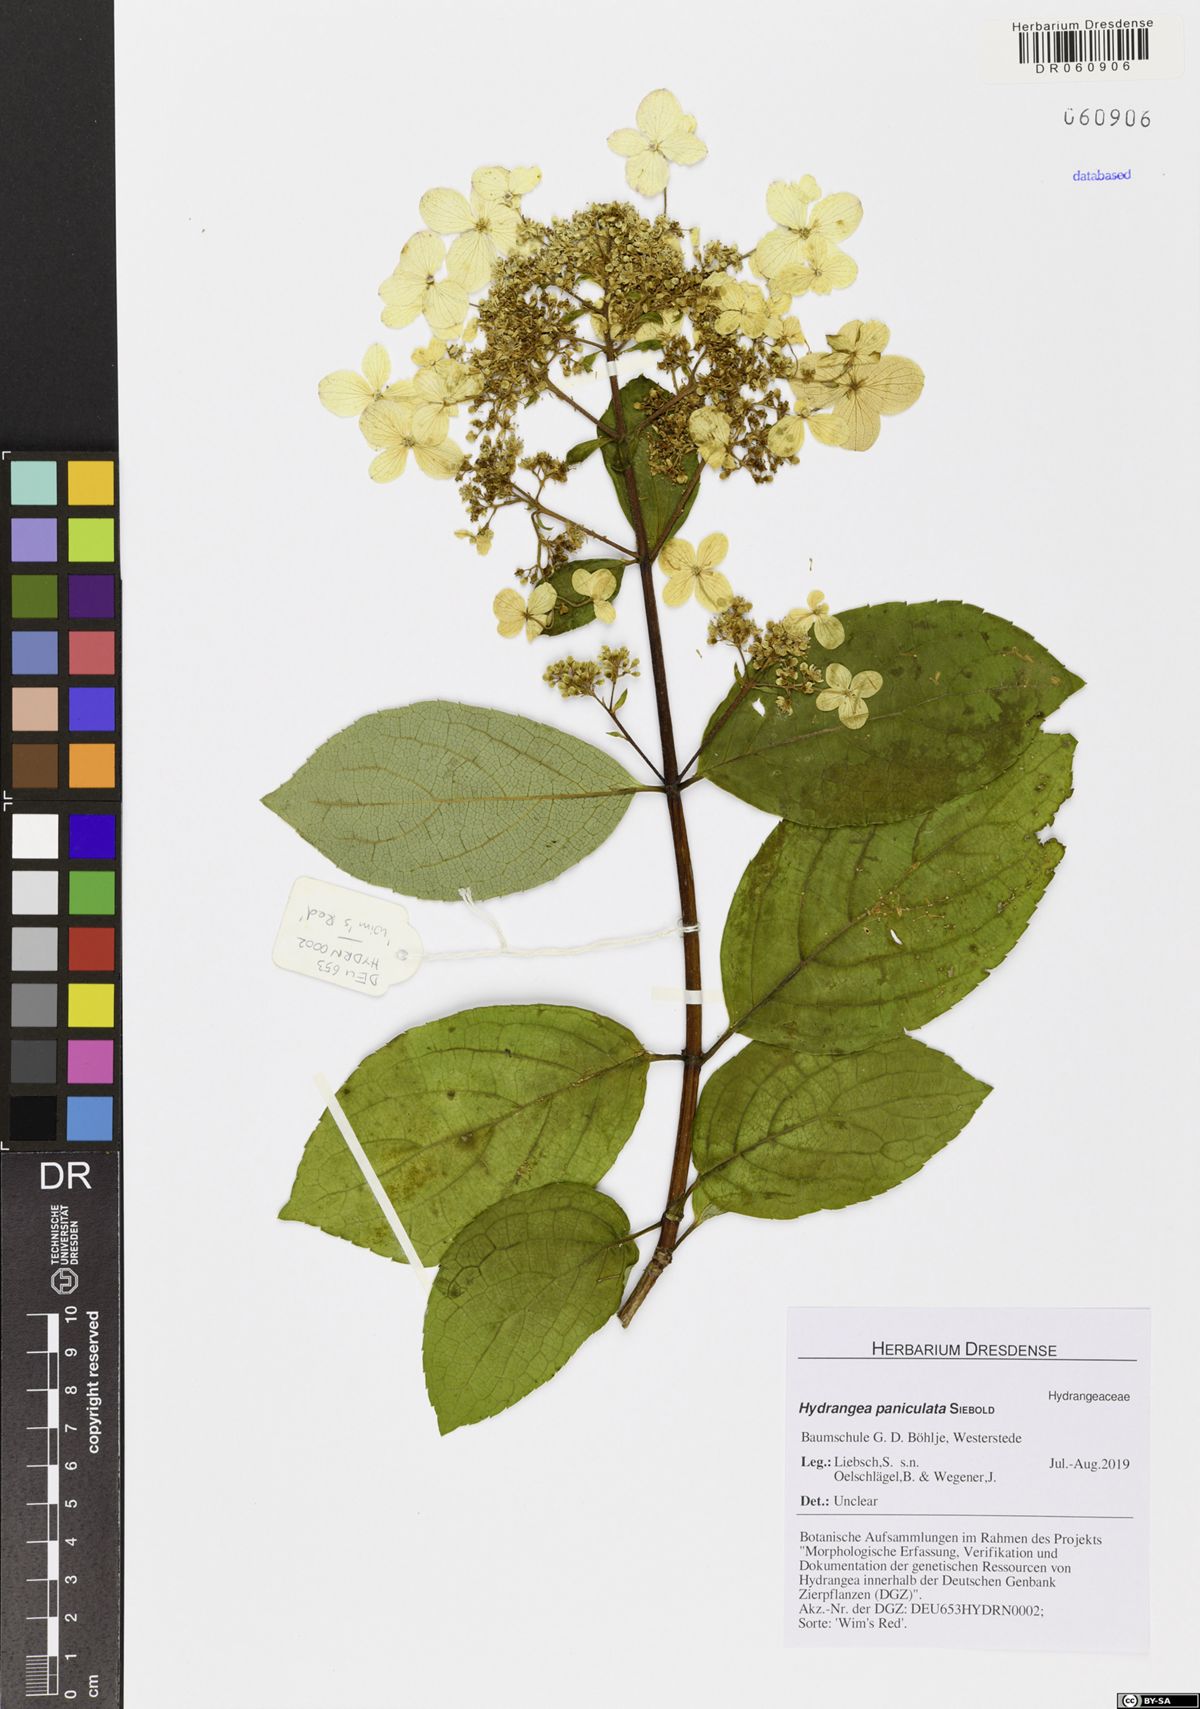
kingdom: Plantae
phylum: Tracheophyta
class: Magnoliopsida
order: Cornales
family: Hydrangeaceae
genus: Hydrangea
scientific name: Hydrangea paniculata
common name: Panicled hydrangea
